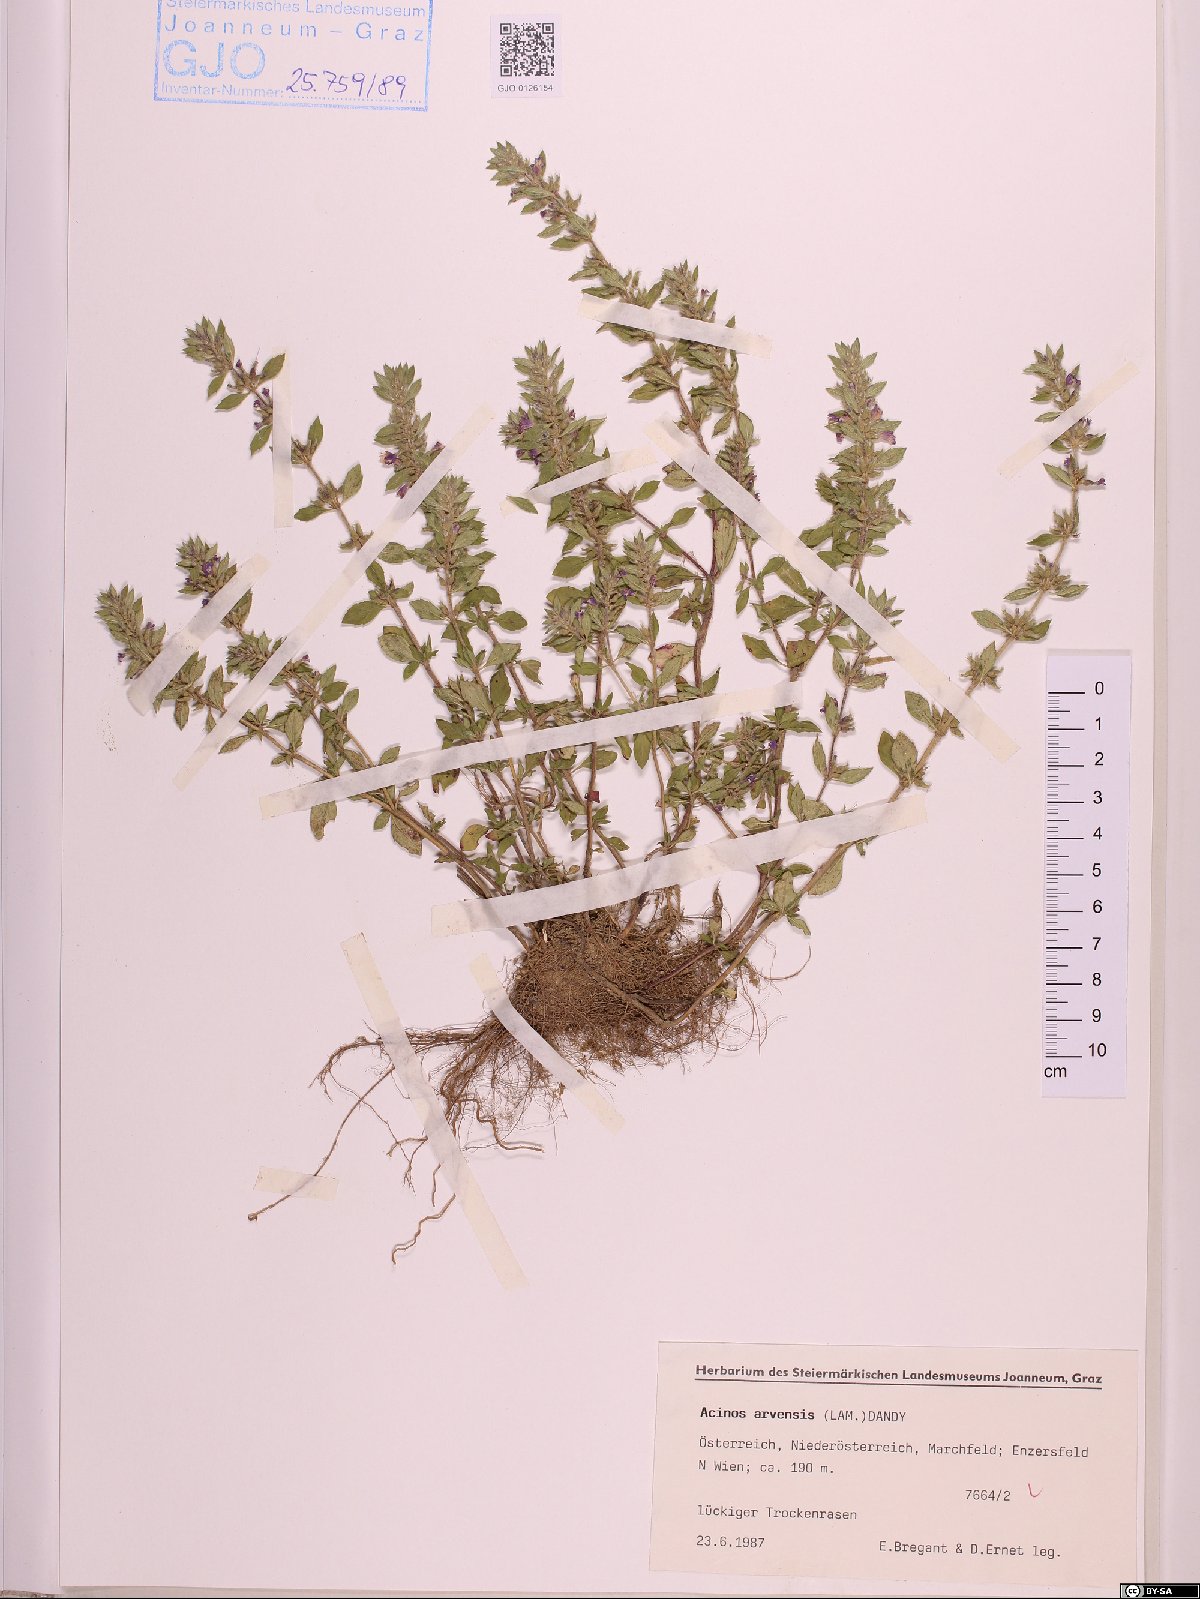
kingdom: Plantae
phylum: Tracheophyta
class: Magnoliopsida
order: Lamiales
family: Lamiaceae
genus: Clinopodium
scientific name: Clinopodium acinos
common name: Basil thyme
